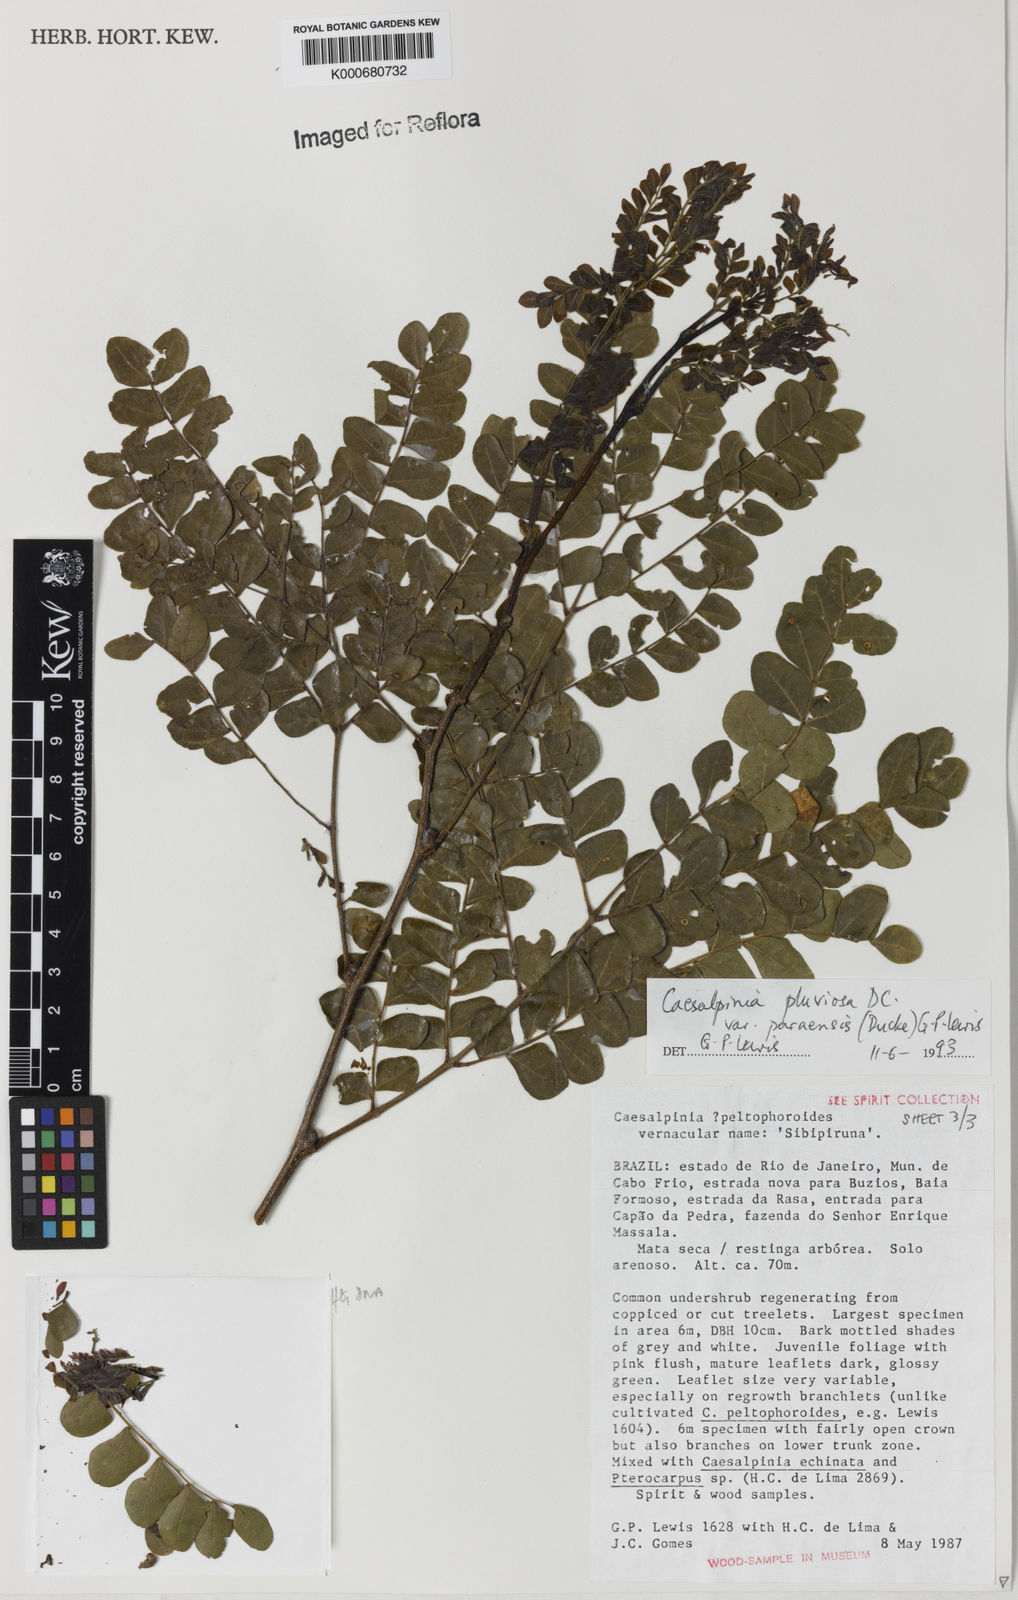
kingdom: Plantae
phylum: Tracheophyta
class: Magnoliopsida
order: Fabales
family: Fabaceae
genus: Cenostigma
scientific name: Cenostigma pluviosum
